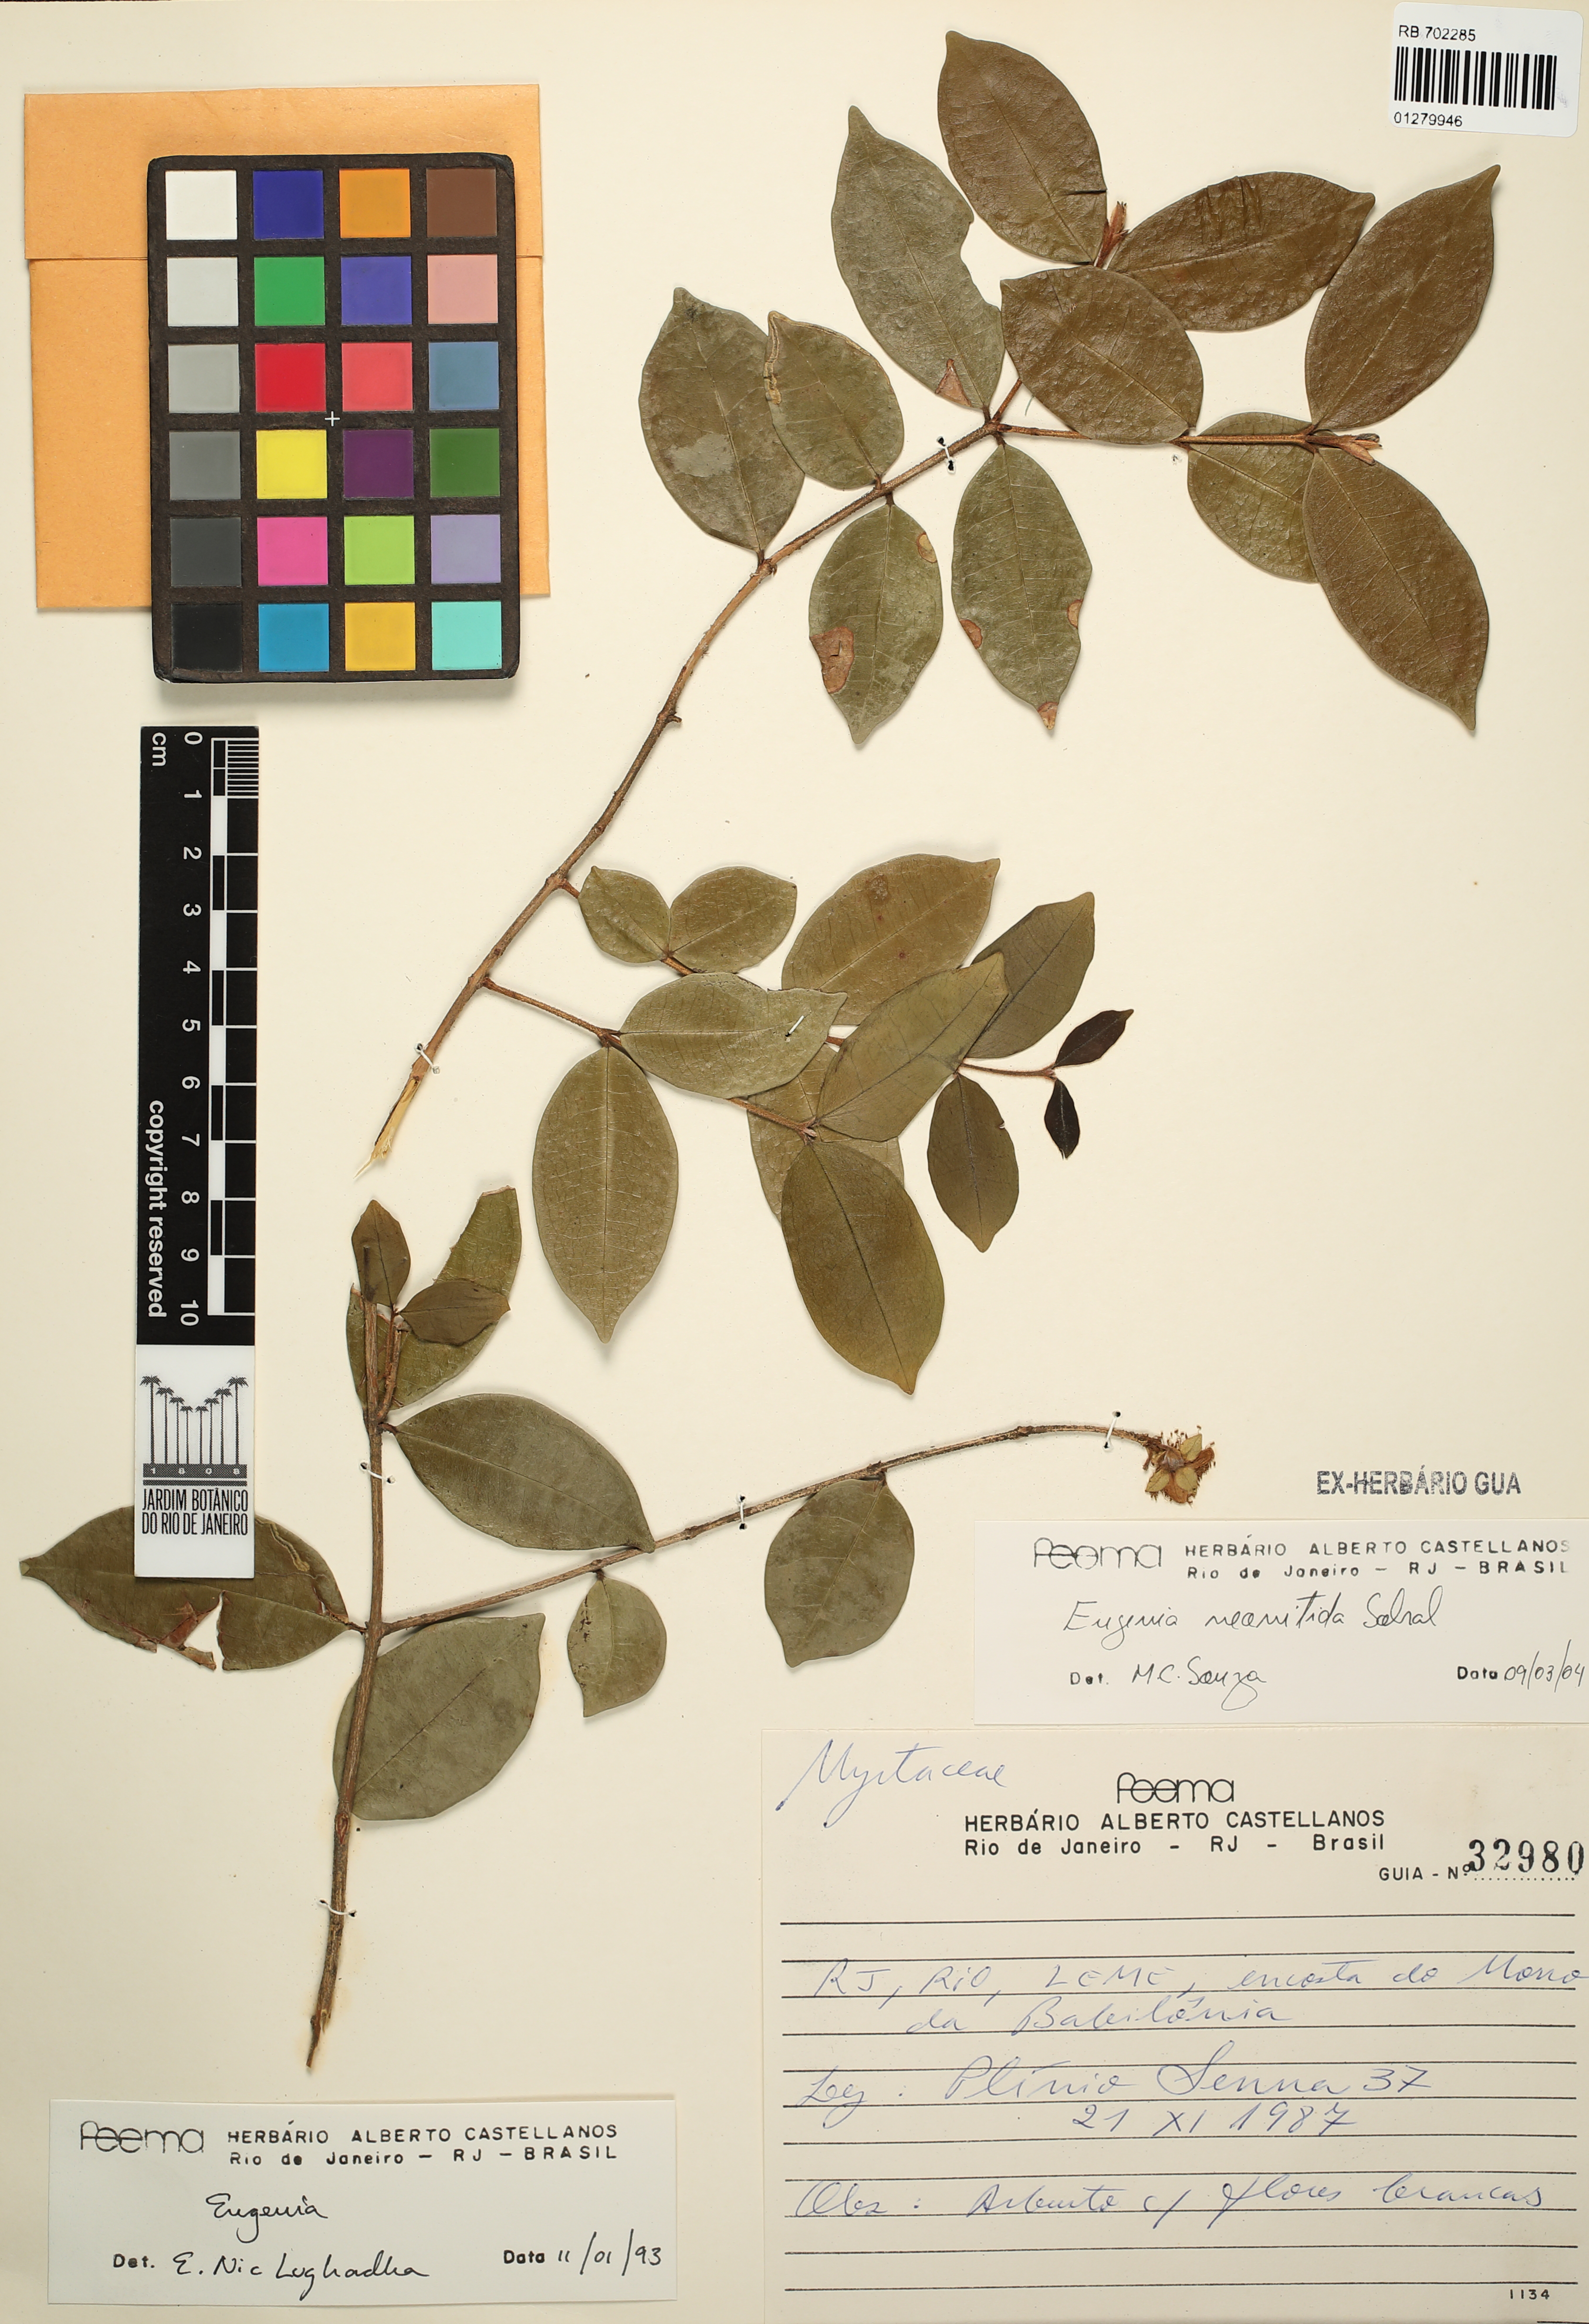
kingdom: Plantae
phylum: Tracheophyta
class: Magnoliopsida
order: Myrtales
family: Myrtaceae
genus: Eugenia
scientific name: Eugenia selloi
